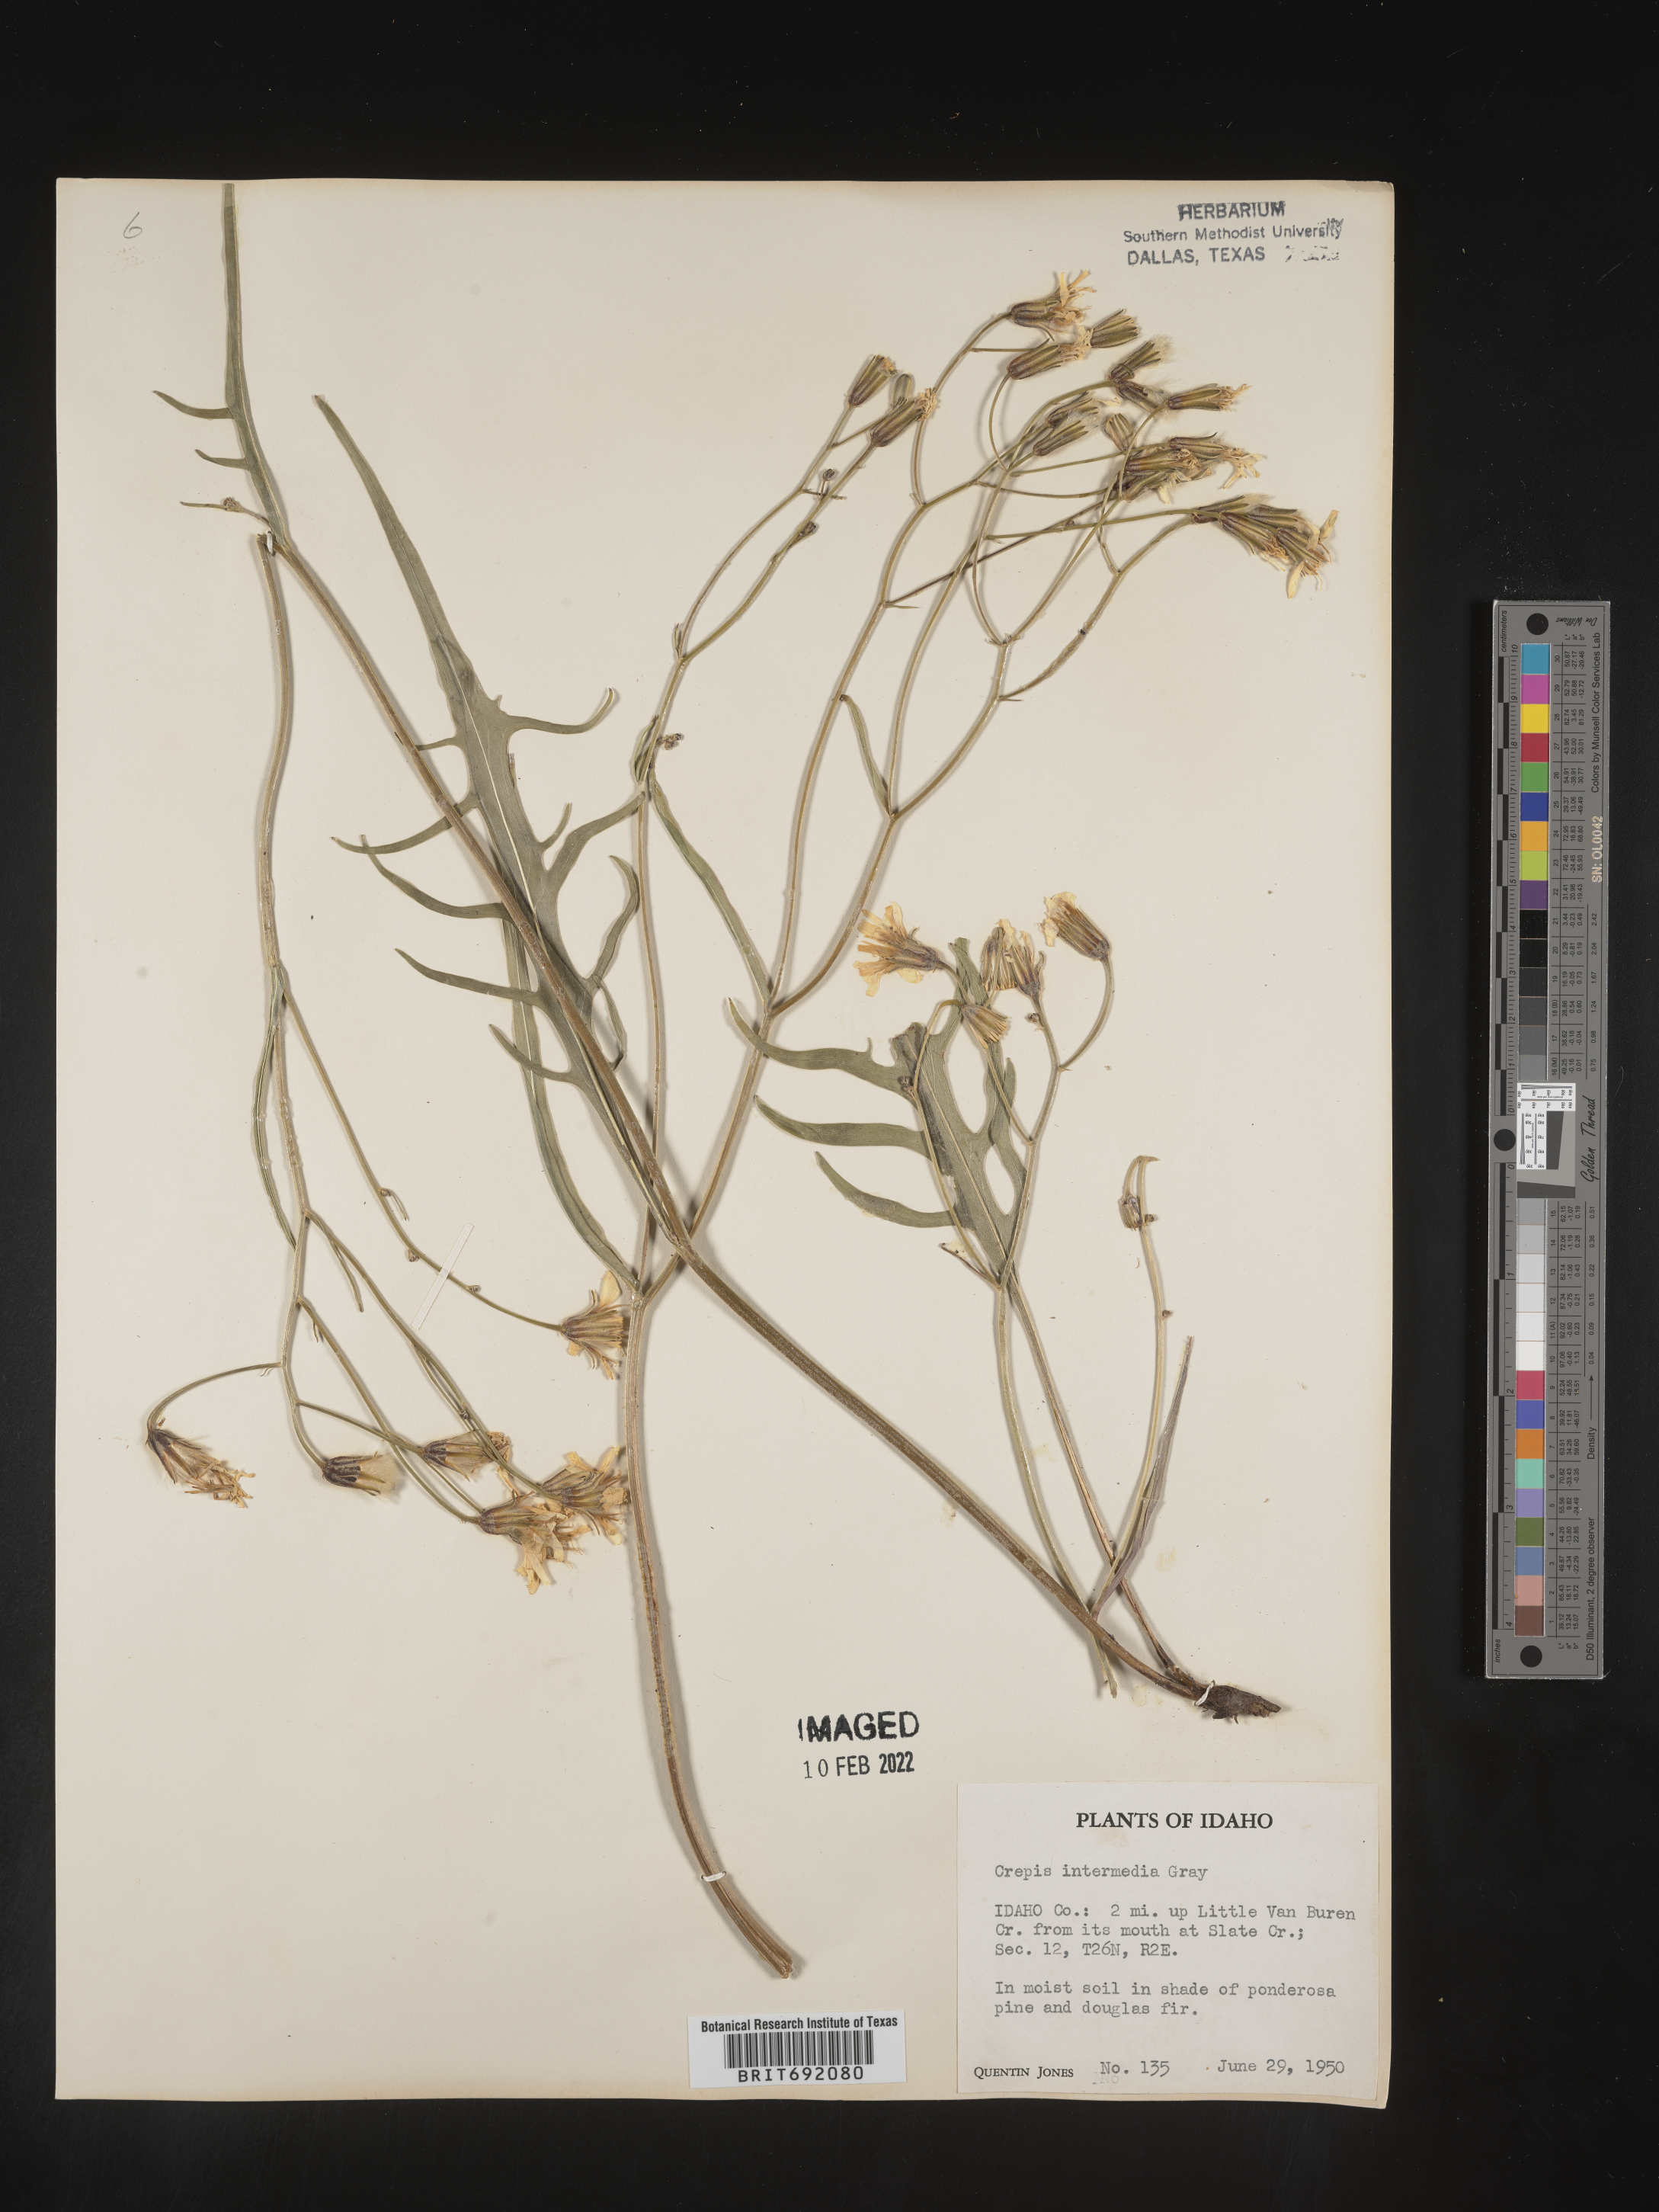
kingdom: Plantae
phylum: Tracheophyta
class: Magnoliopsida
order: Asterales
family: Asteraceae
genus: Crepis
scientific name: Crepis intermedia
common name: Limestone hawk's-beard
